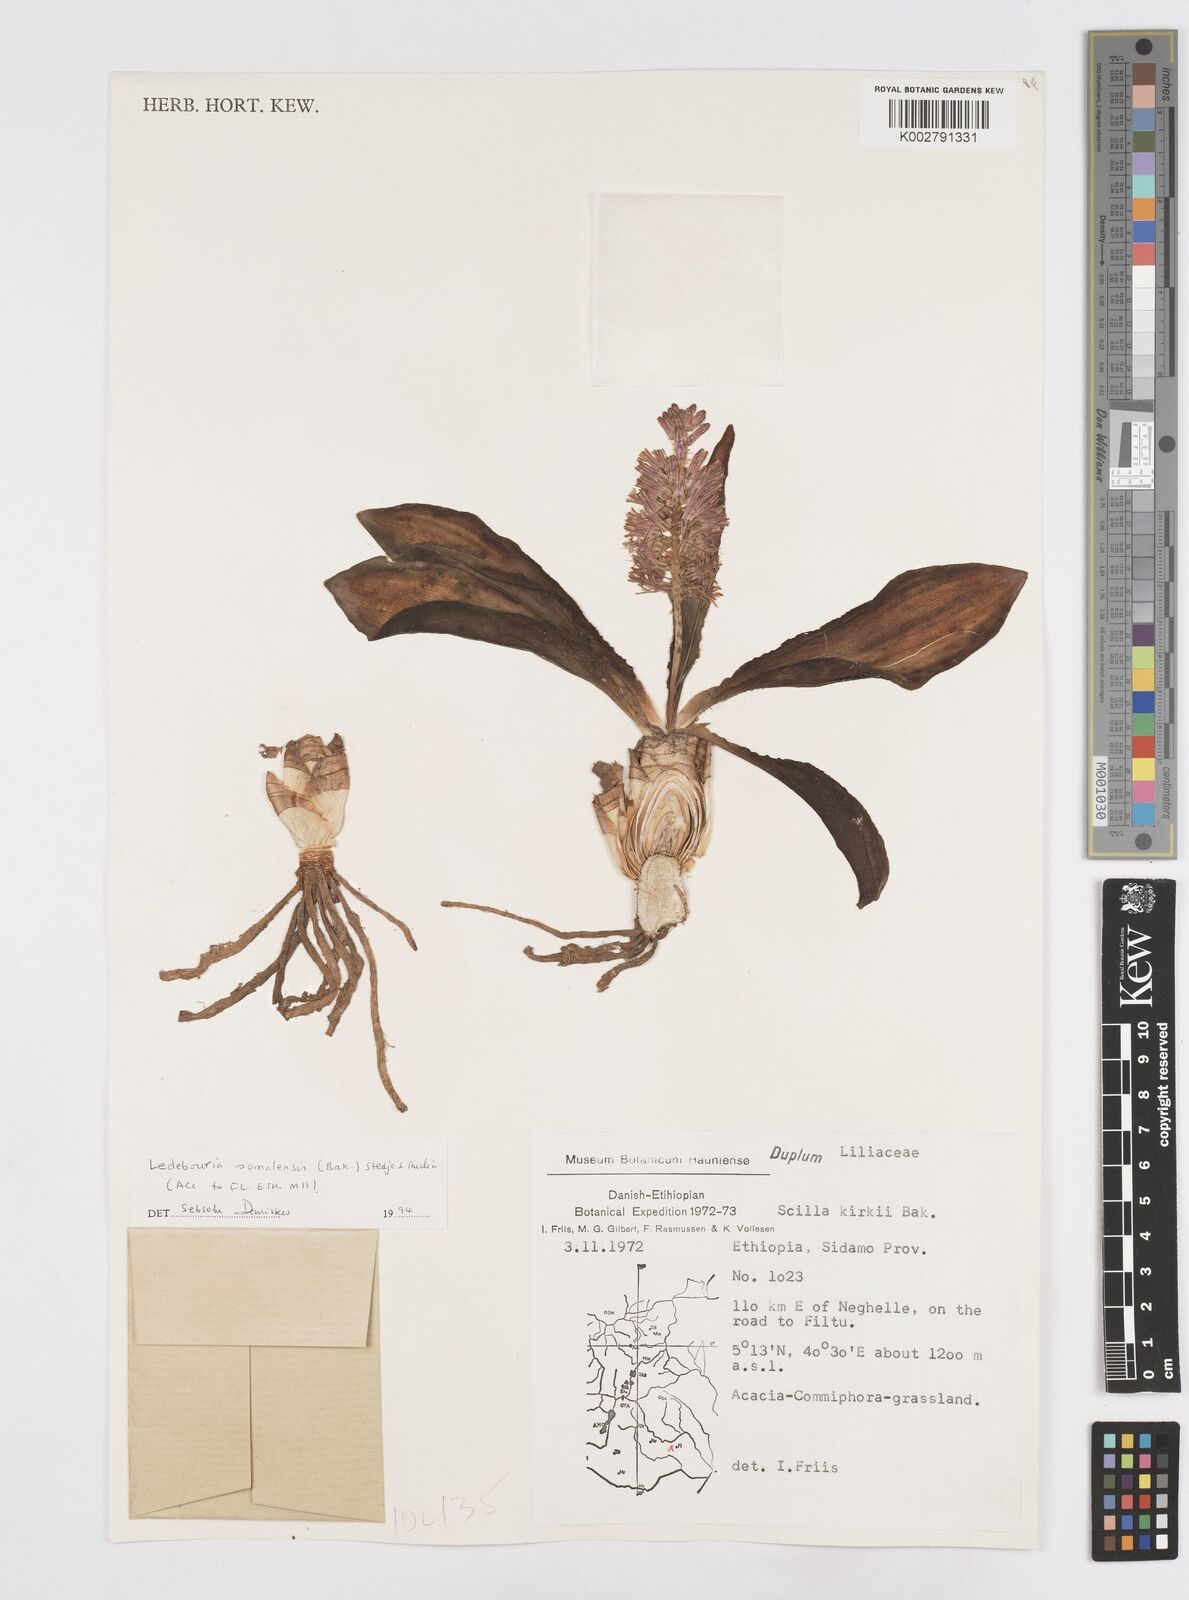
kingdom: Plantae
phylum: Tracheophyta
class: Liliopsida
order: Asparagales
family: Asparagaceae
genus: Scilla
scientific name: Scilla
